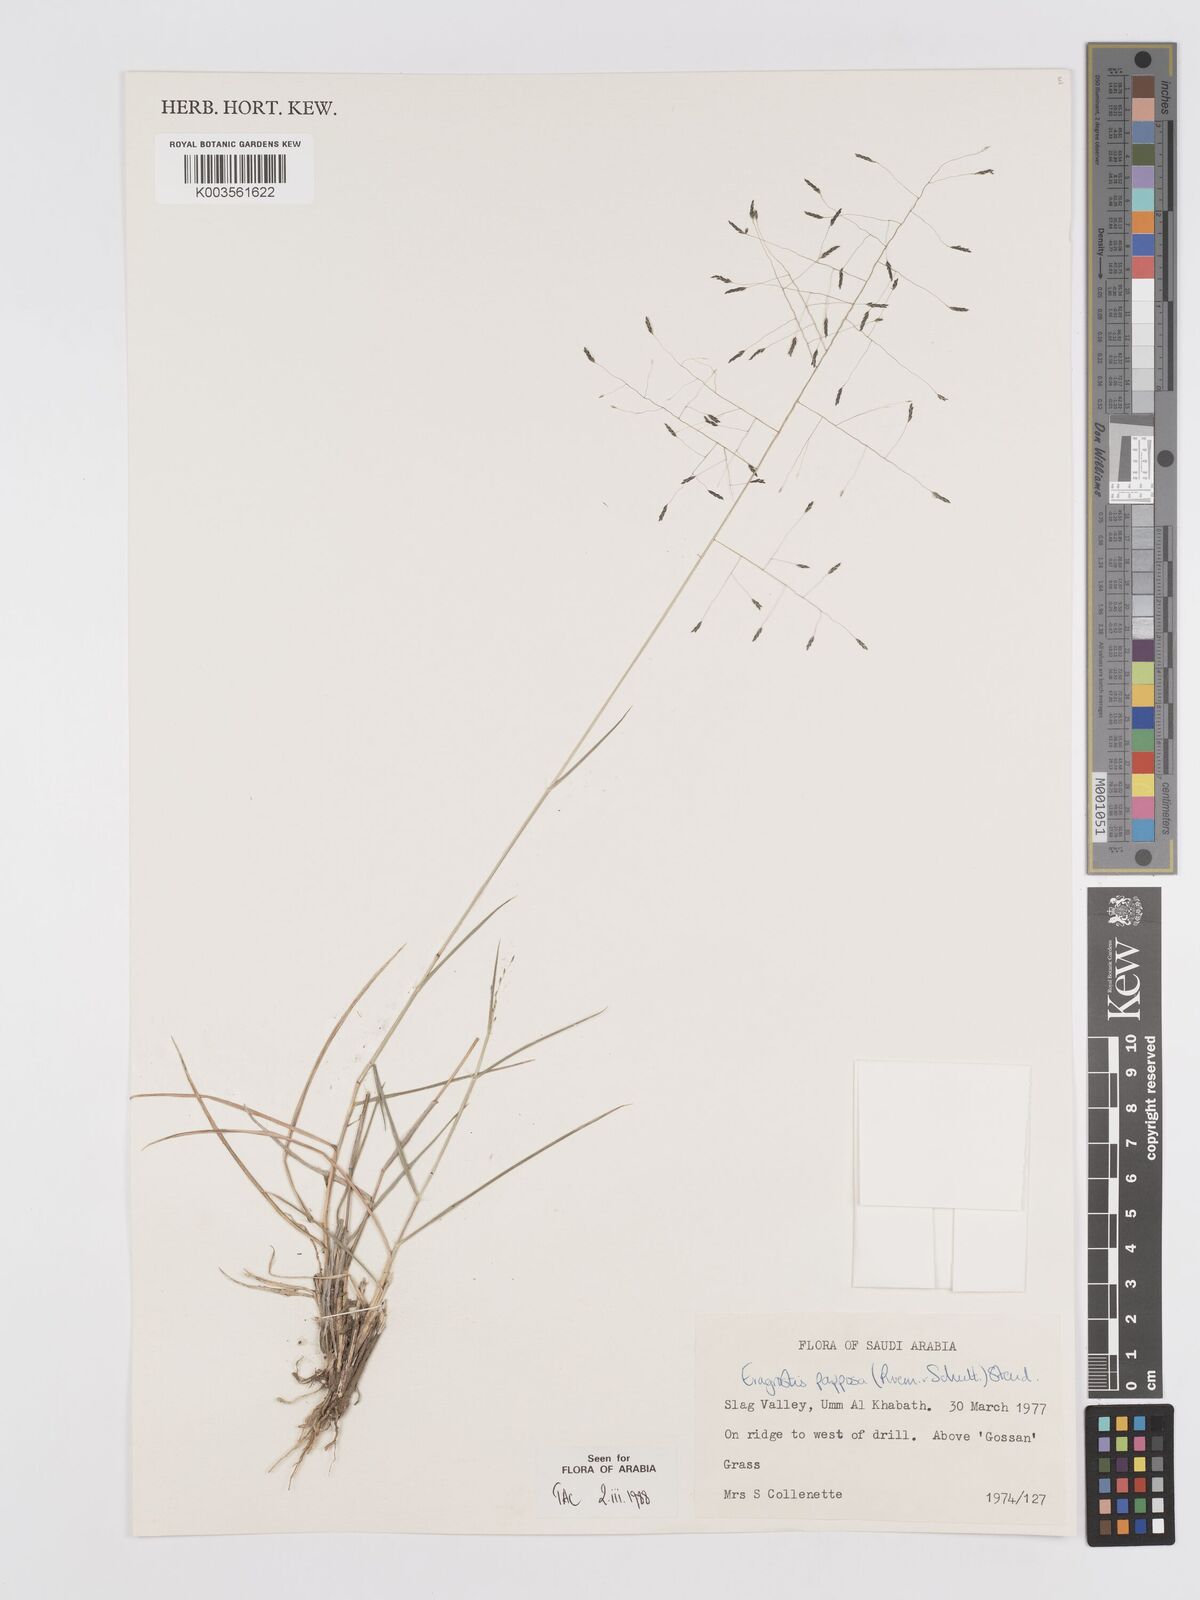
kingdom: Plantae
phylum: Tracheophyta
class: Liliopsida
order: Poales
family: Poaceae
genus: Eragrostis
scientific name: Eragrostis papposa
